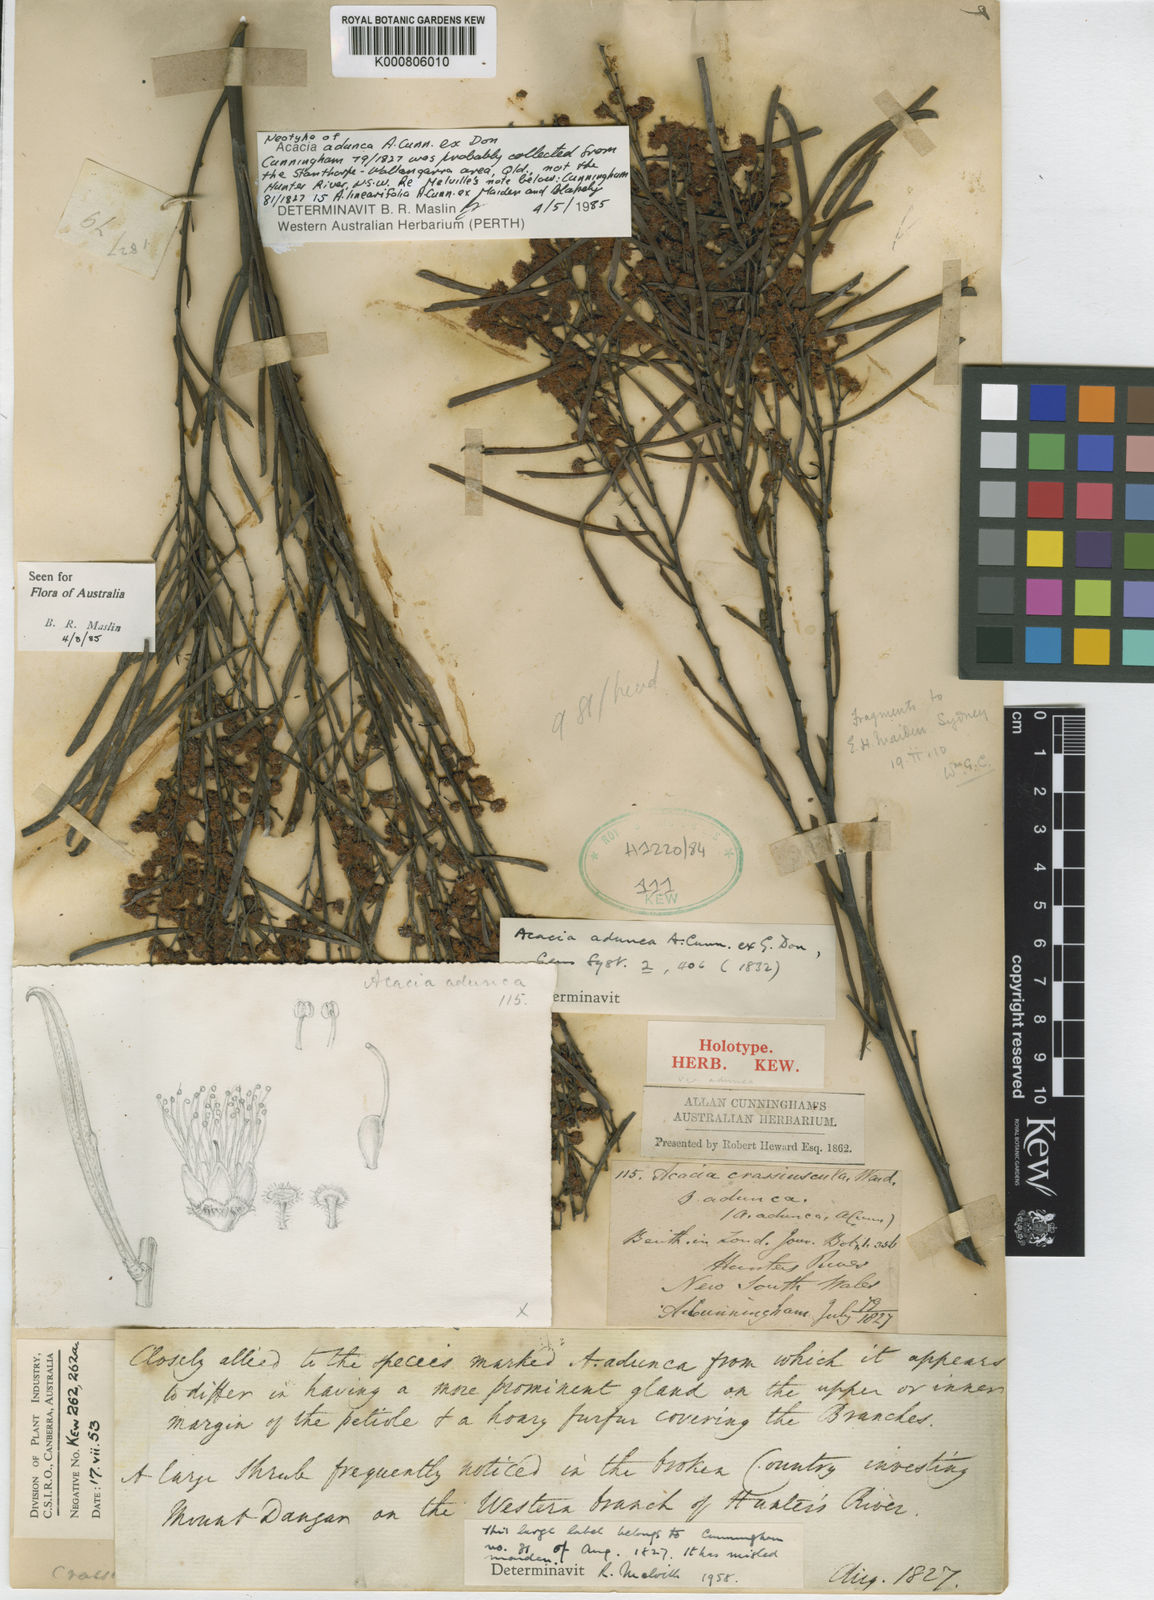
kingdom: Plantae
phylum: Tracheophyta
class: Magnoliopsida
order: Fabales
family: Fabaceae
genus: Acacia
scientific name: Acacia adunca
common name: Wallangarra wattle
